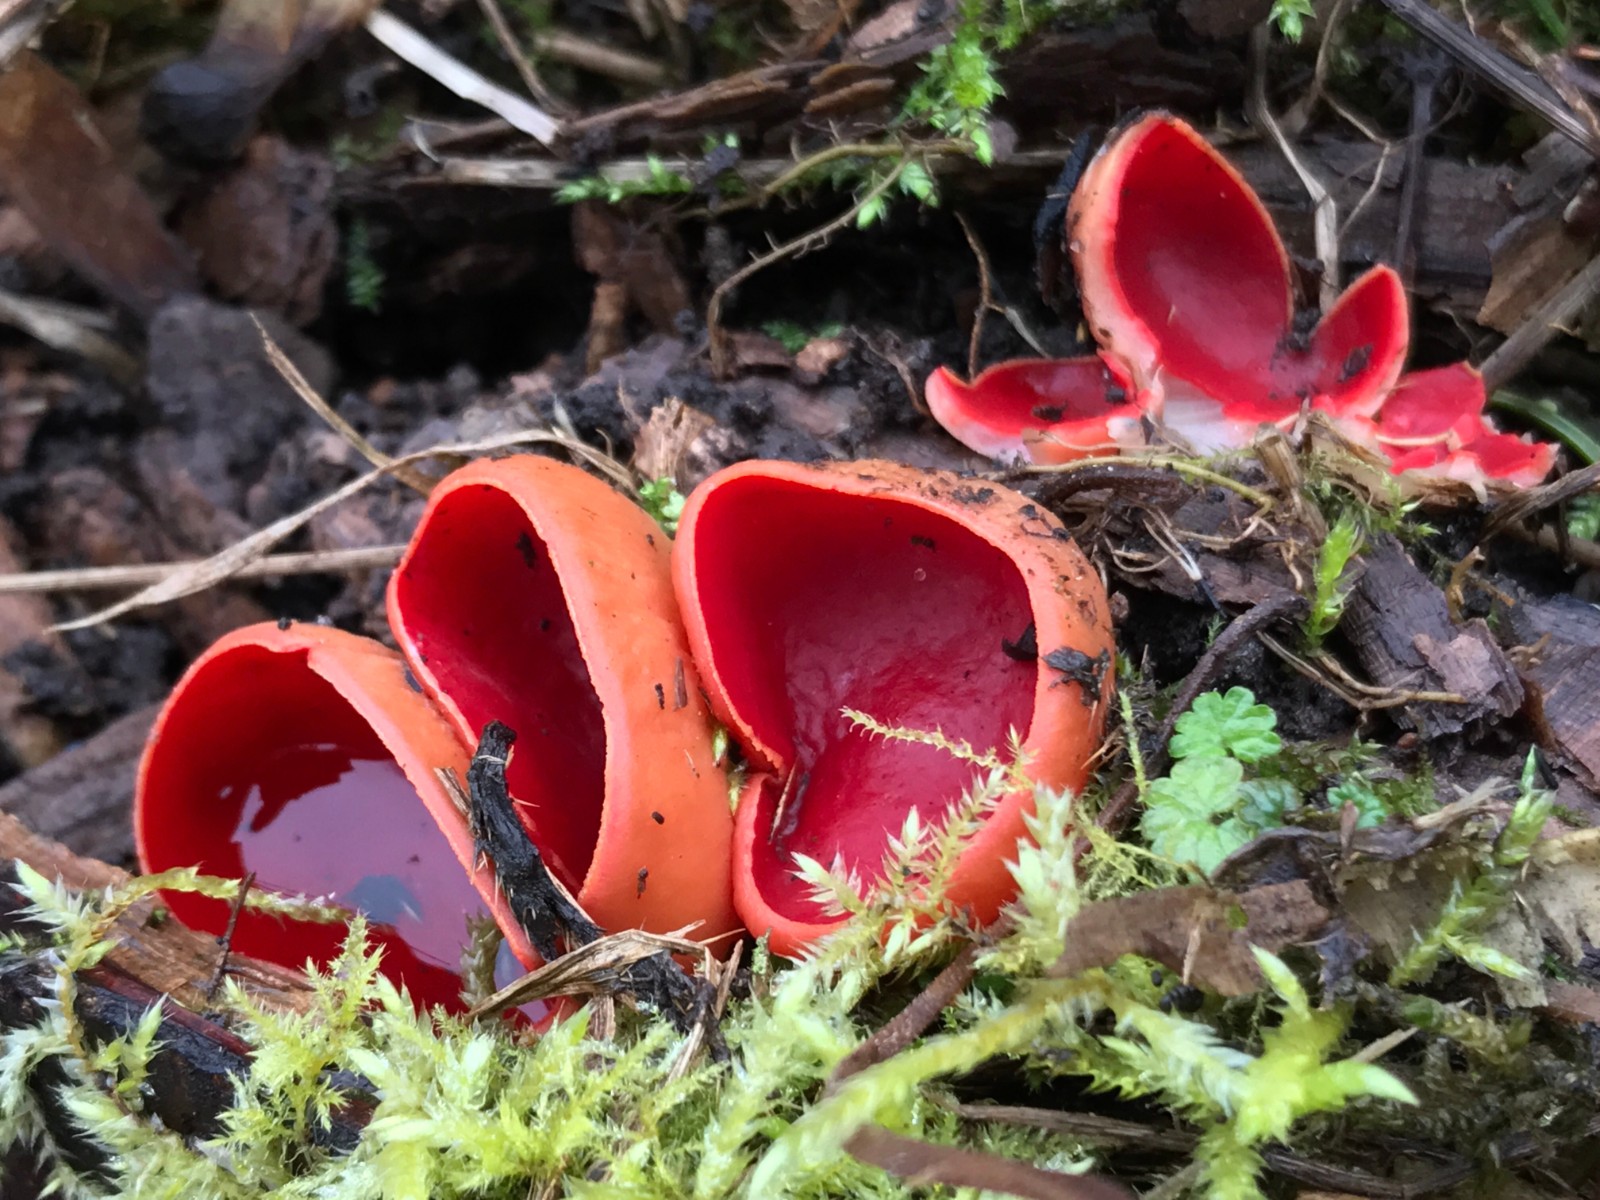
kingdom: Fungi
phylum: Ascomycota
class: Pezizomycetes
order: Pezizales
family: Sarcoscyphaceae
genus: Sarcoscypha
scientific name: Sarcoscypha austriaca
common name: krølhåret pragtbæger
